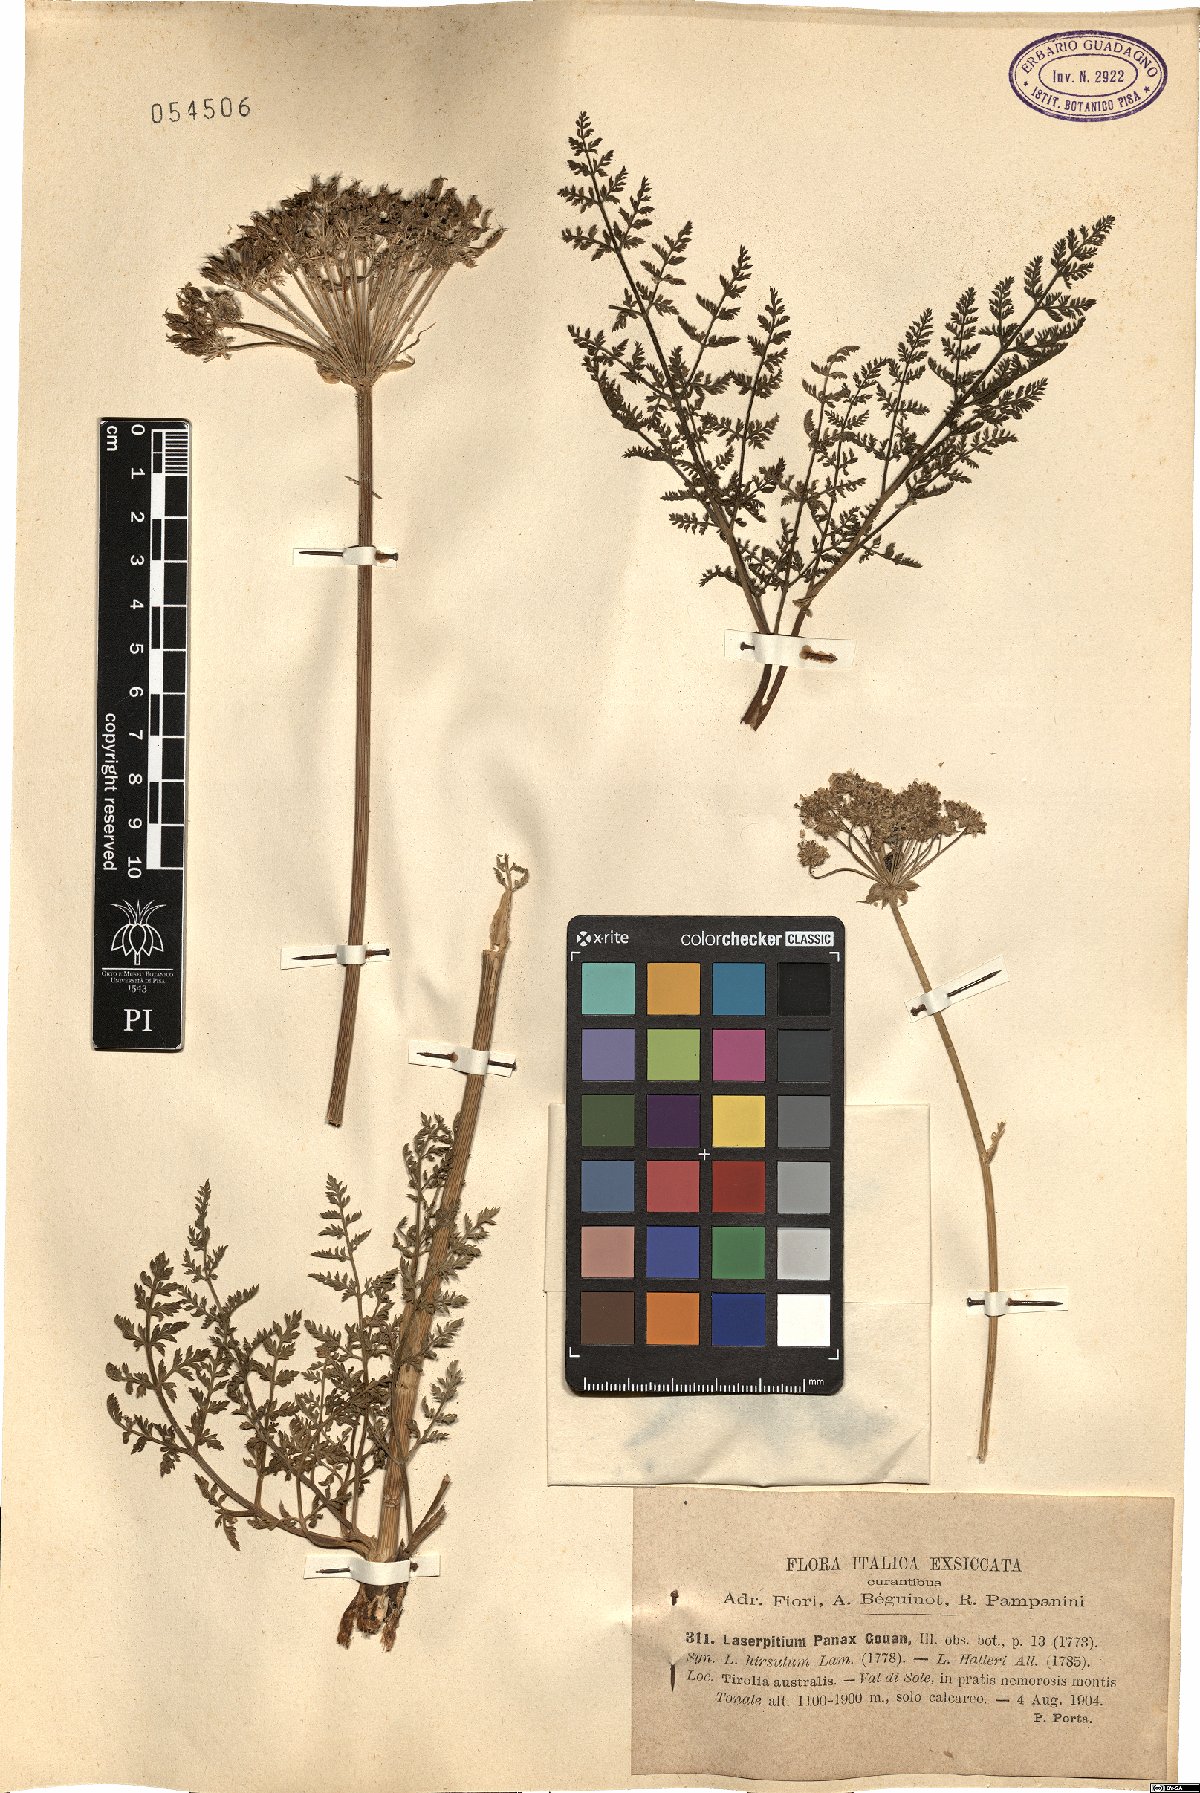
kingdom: Plantae
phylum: Tracheophyta
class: Magnoliopsida
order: Apiales
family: Apiaceae
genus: Laserpitium
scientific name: Laserpitium halleri
